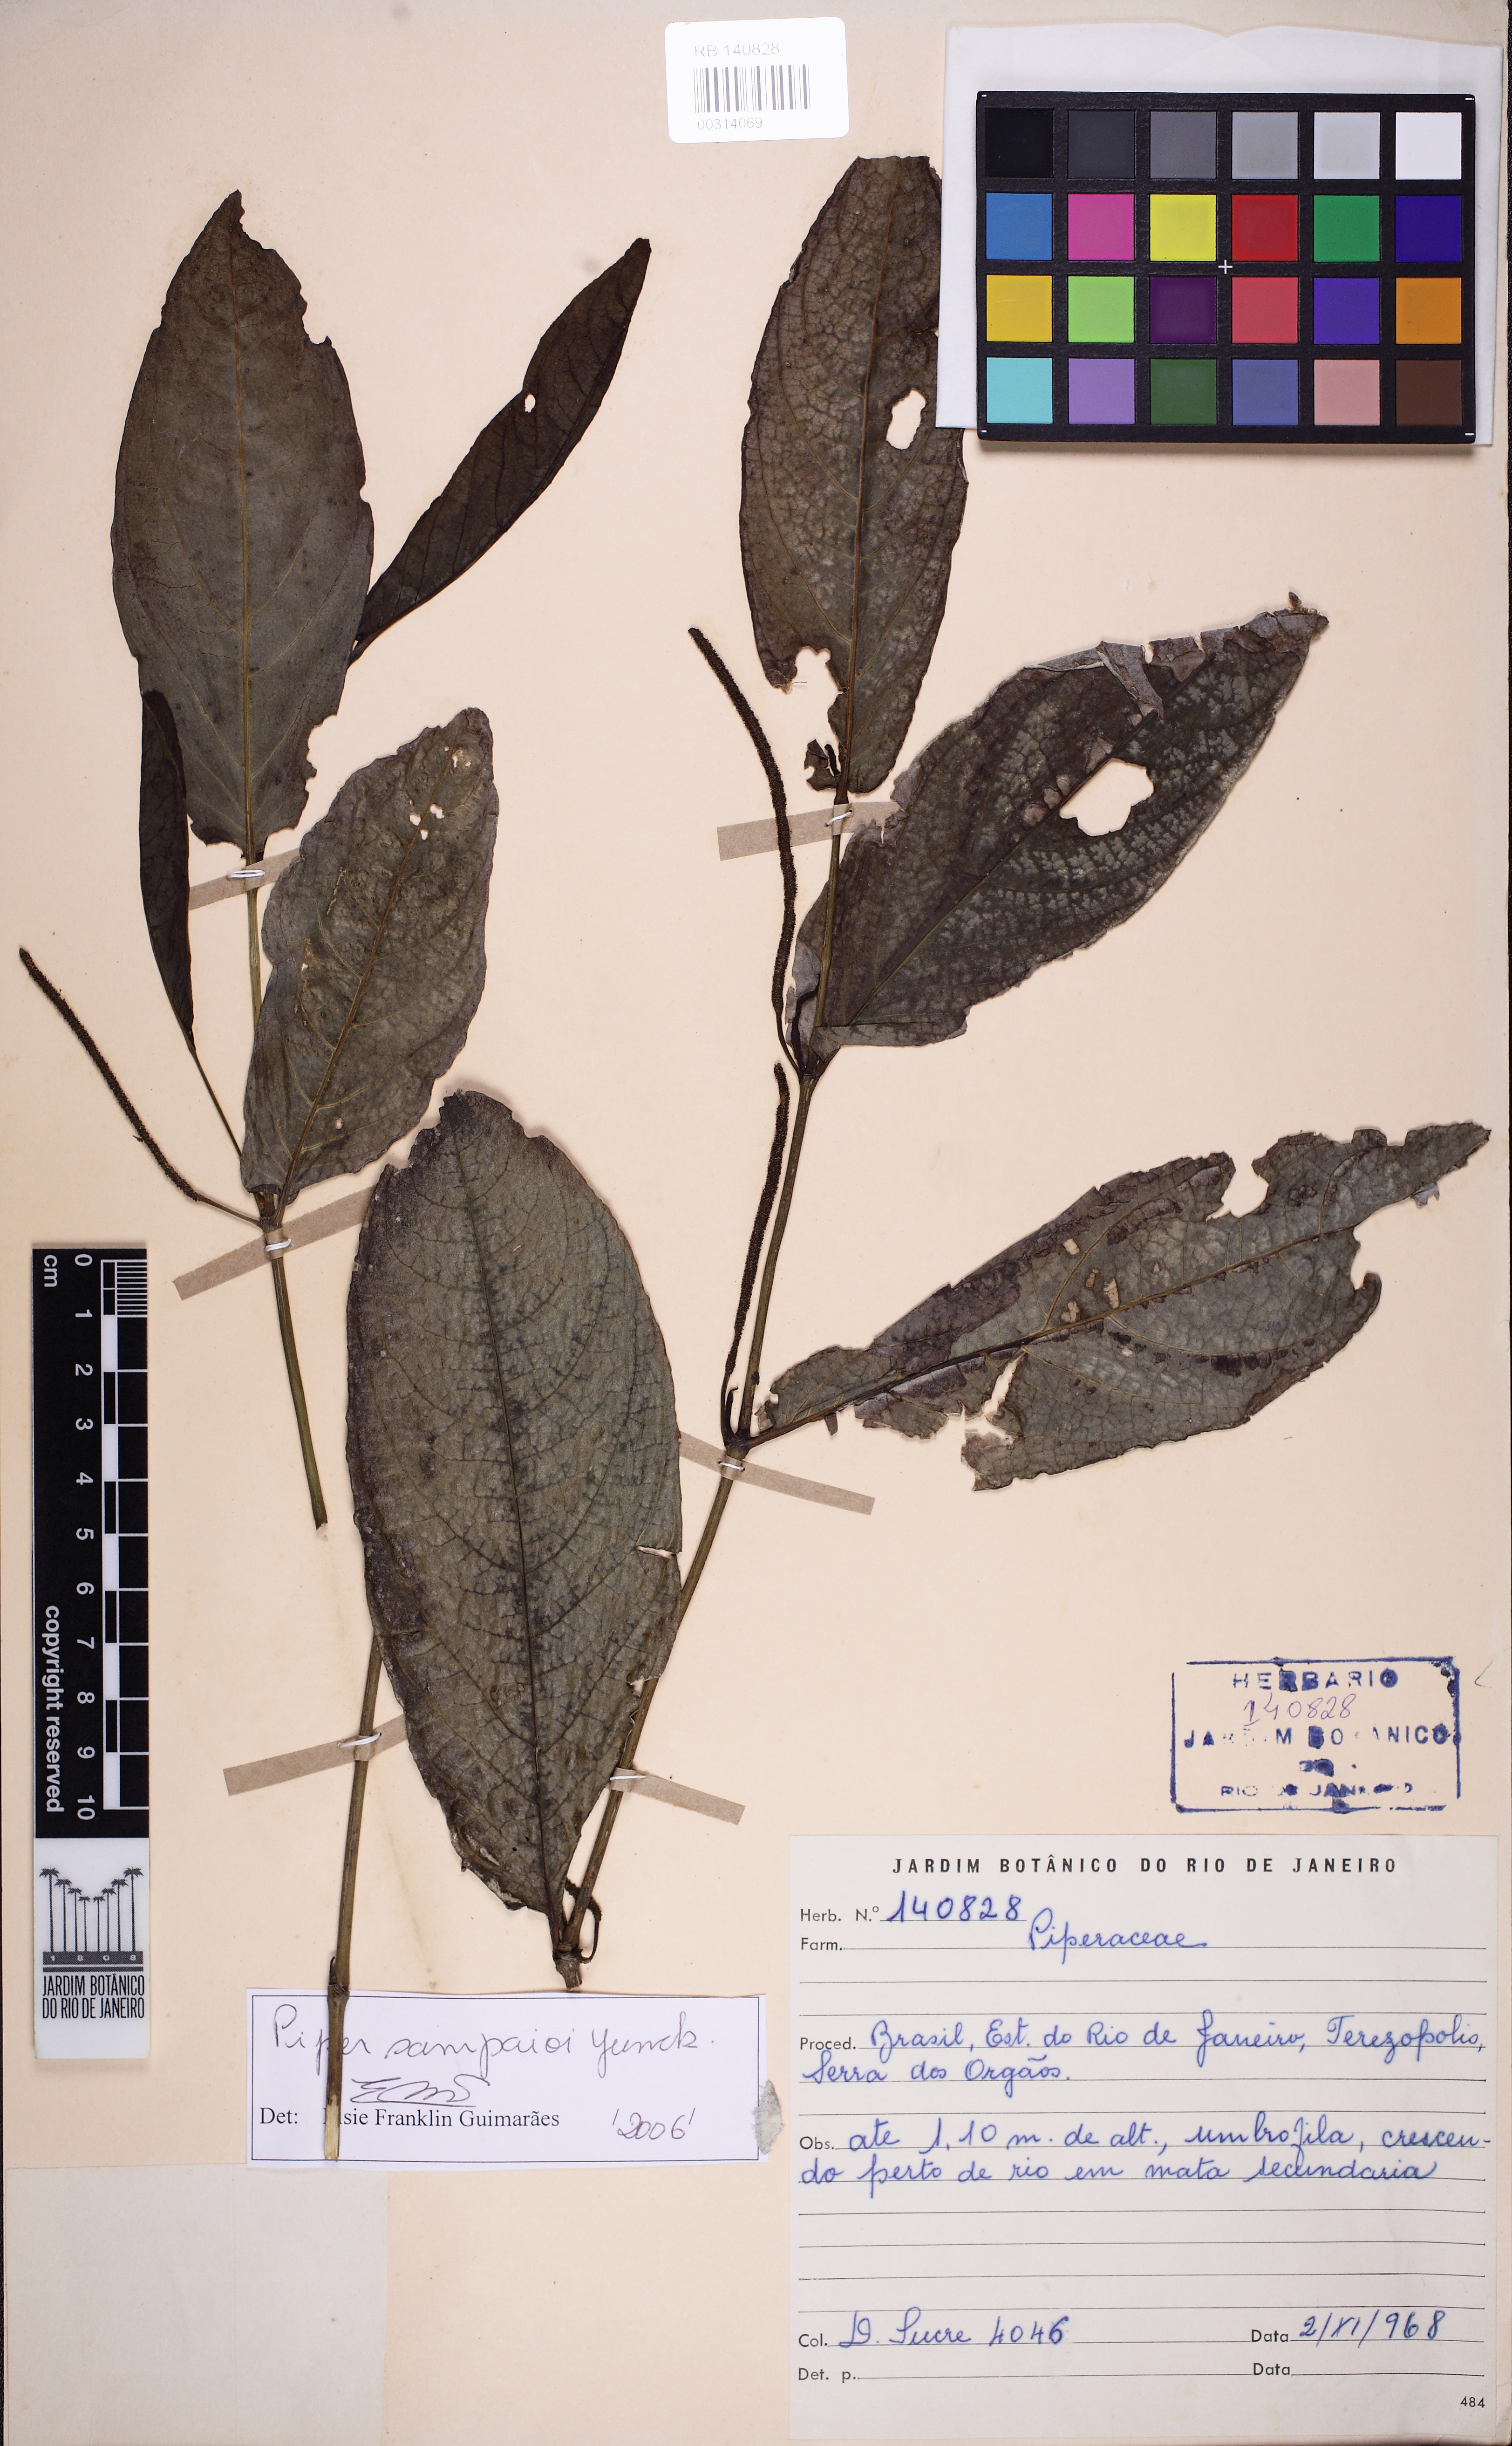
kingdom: Plantae
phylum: Tracheophyta
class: Magnoliopsida
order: Piperales
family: Piperaceae
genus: Piper
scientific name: Piper sampaioi
